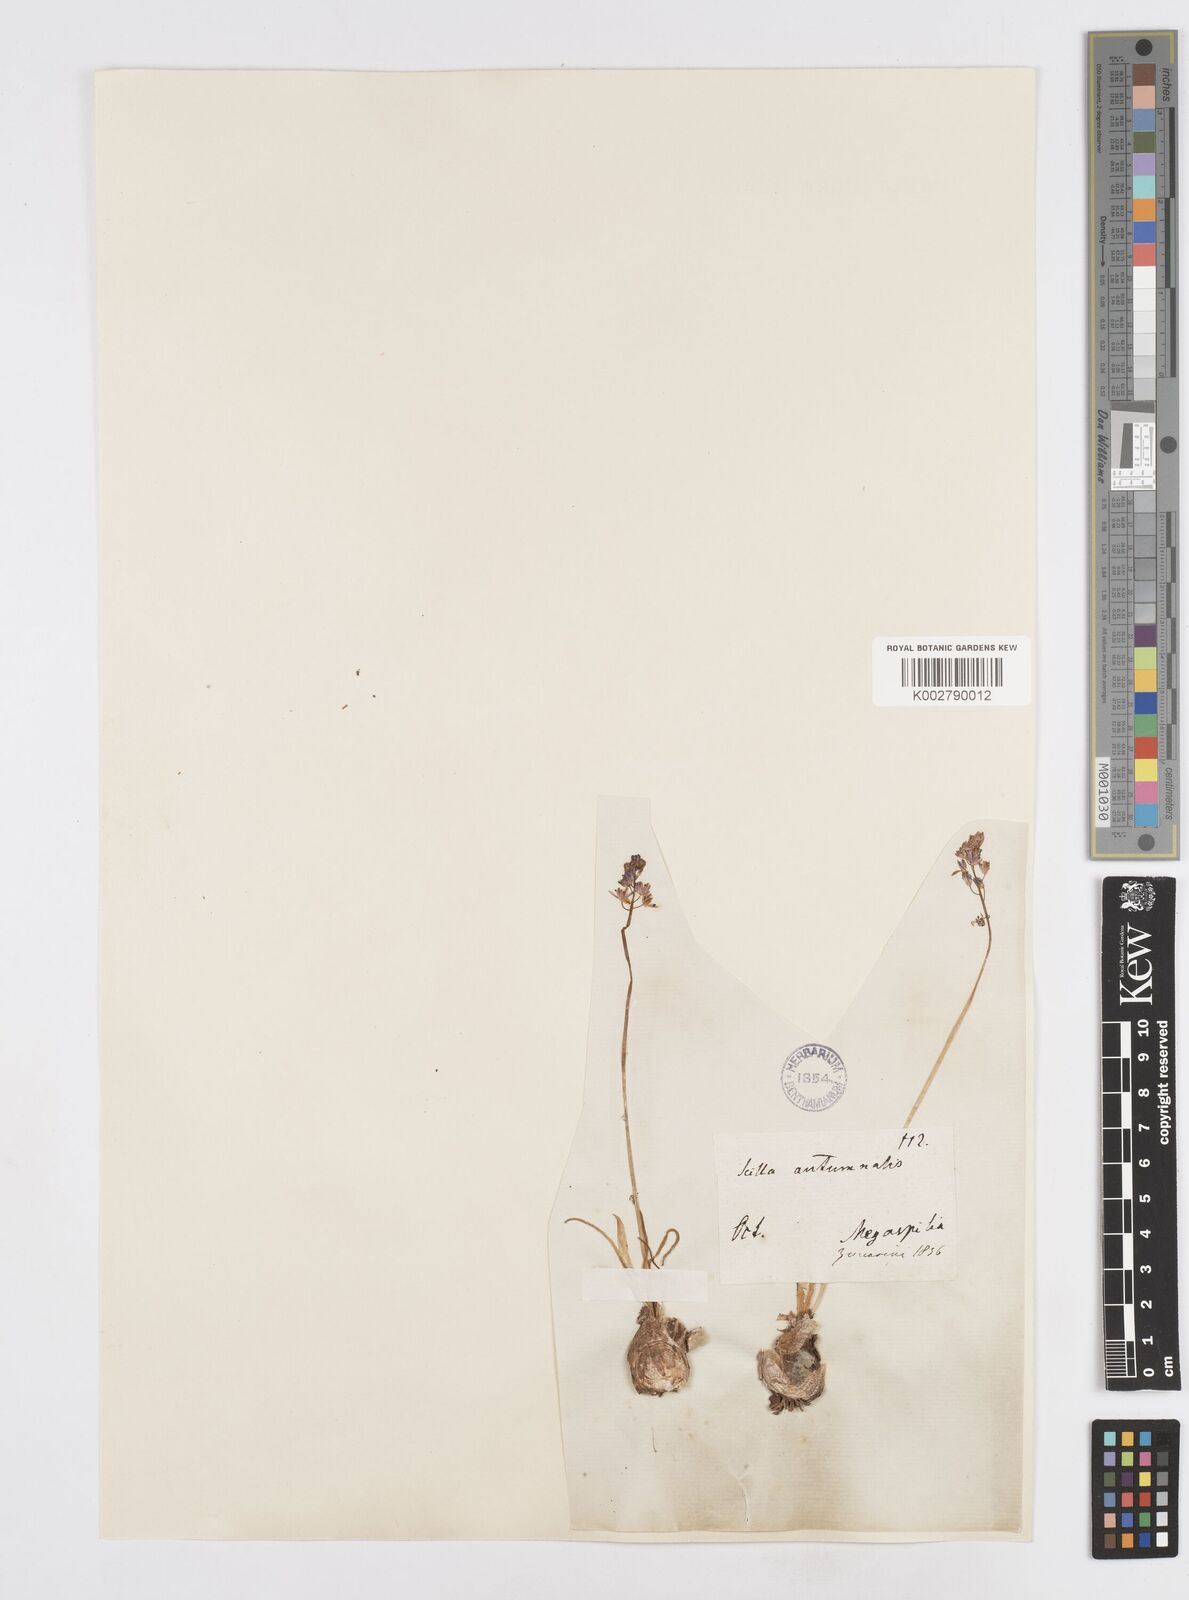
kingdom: Plantae
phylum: Tracheophyta
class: Liliopsida
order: Asparagales
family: Asparagaceae
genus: Prospero
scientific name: Prospero autumnale
